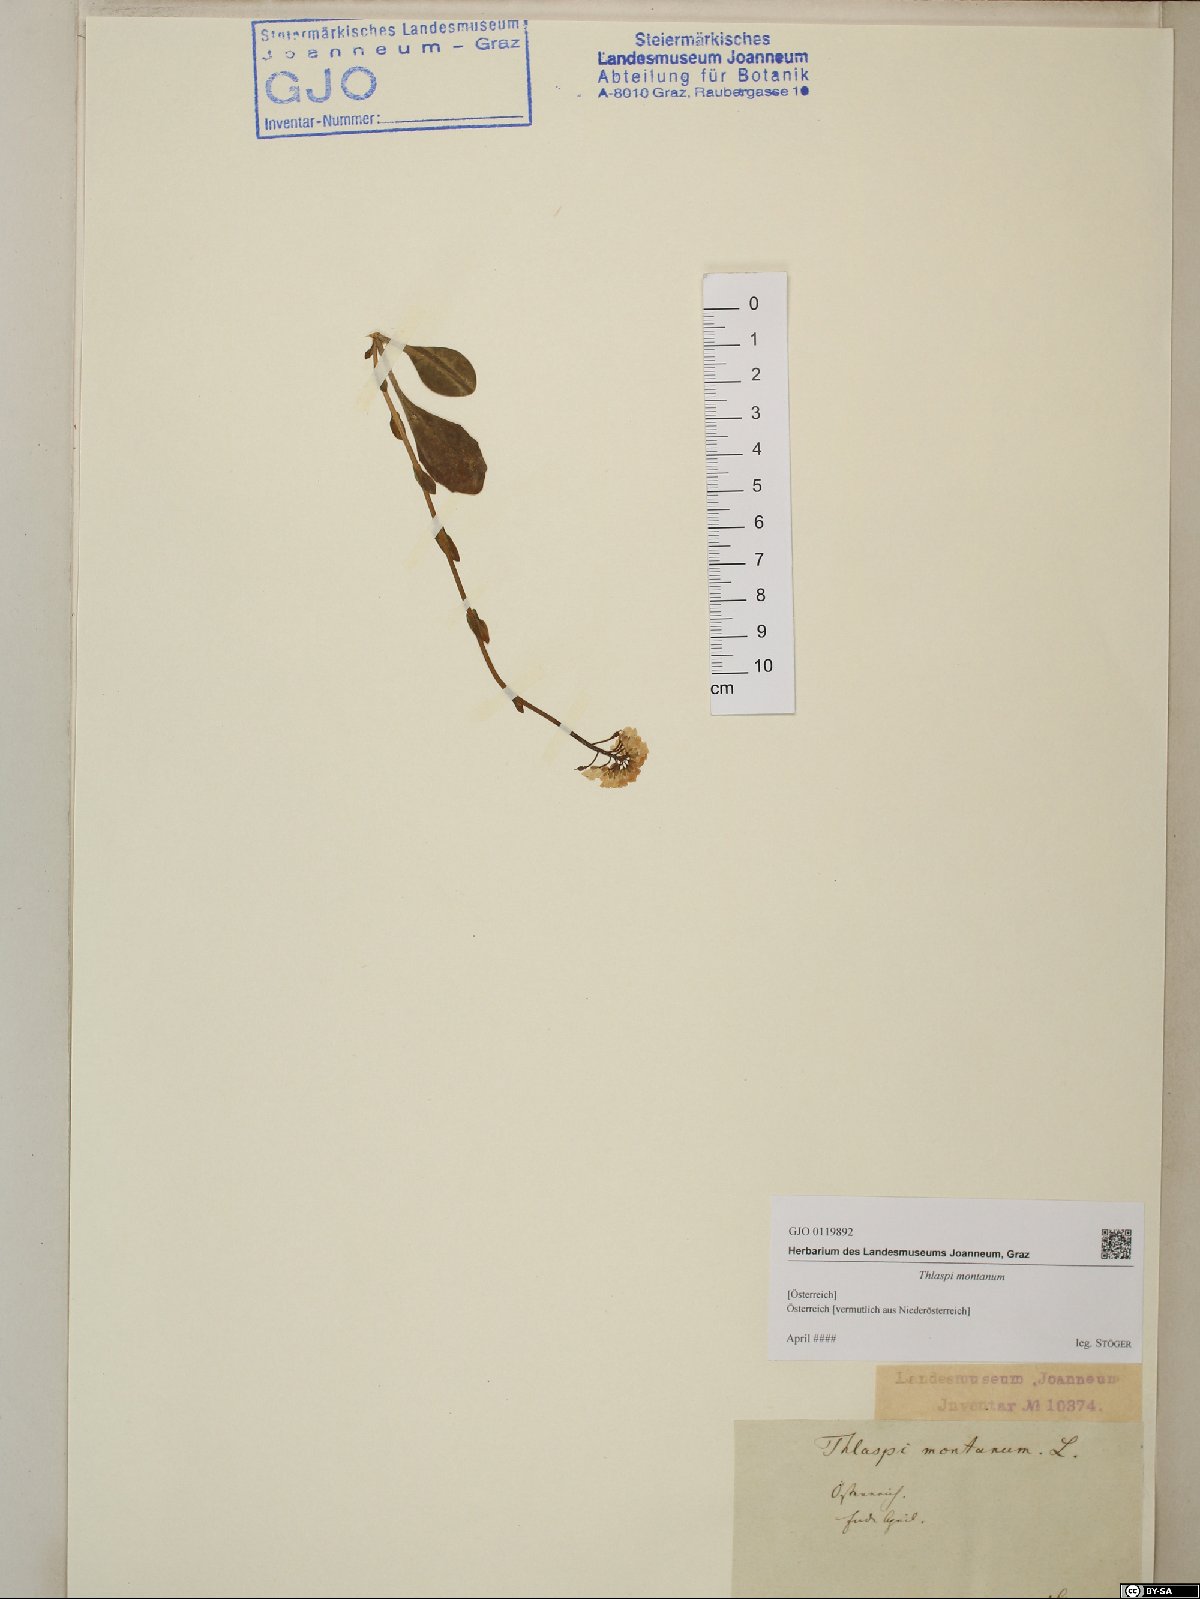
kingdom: Plantae
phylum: Tracheophyta
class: Magnoliopsida
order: Brassicales
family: Brassicaceae
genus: Noccaea
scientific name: Noccaea montana
